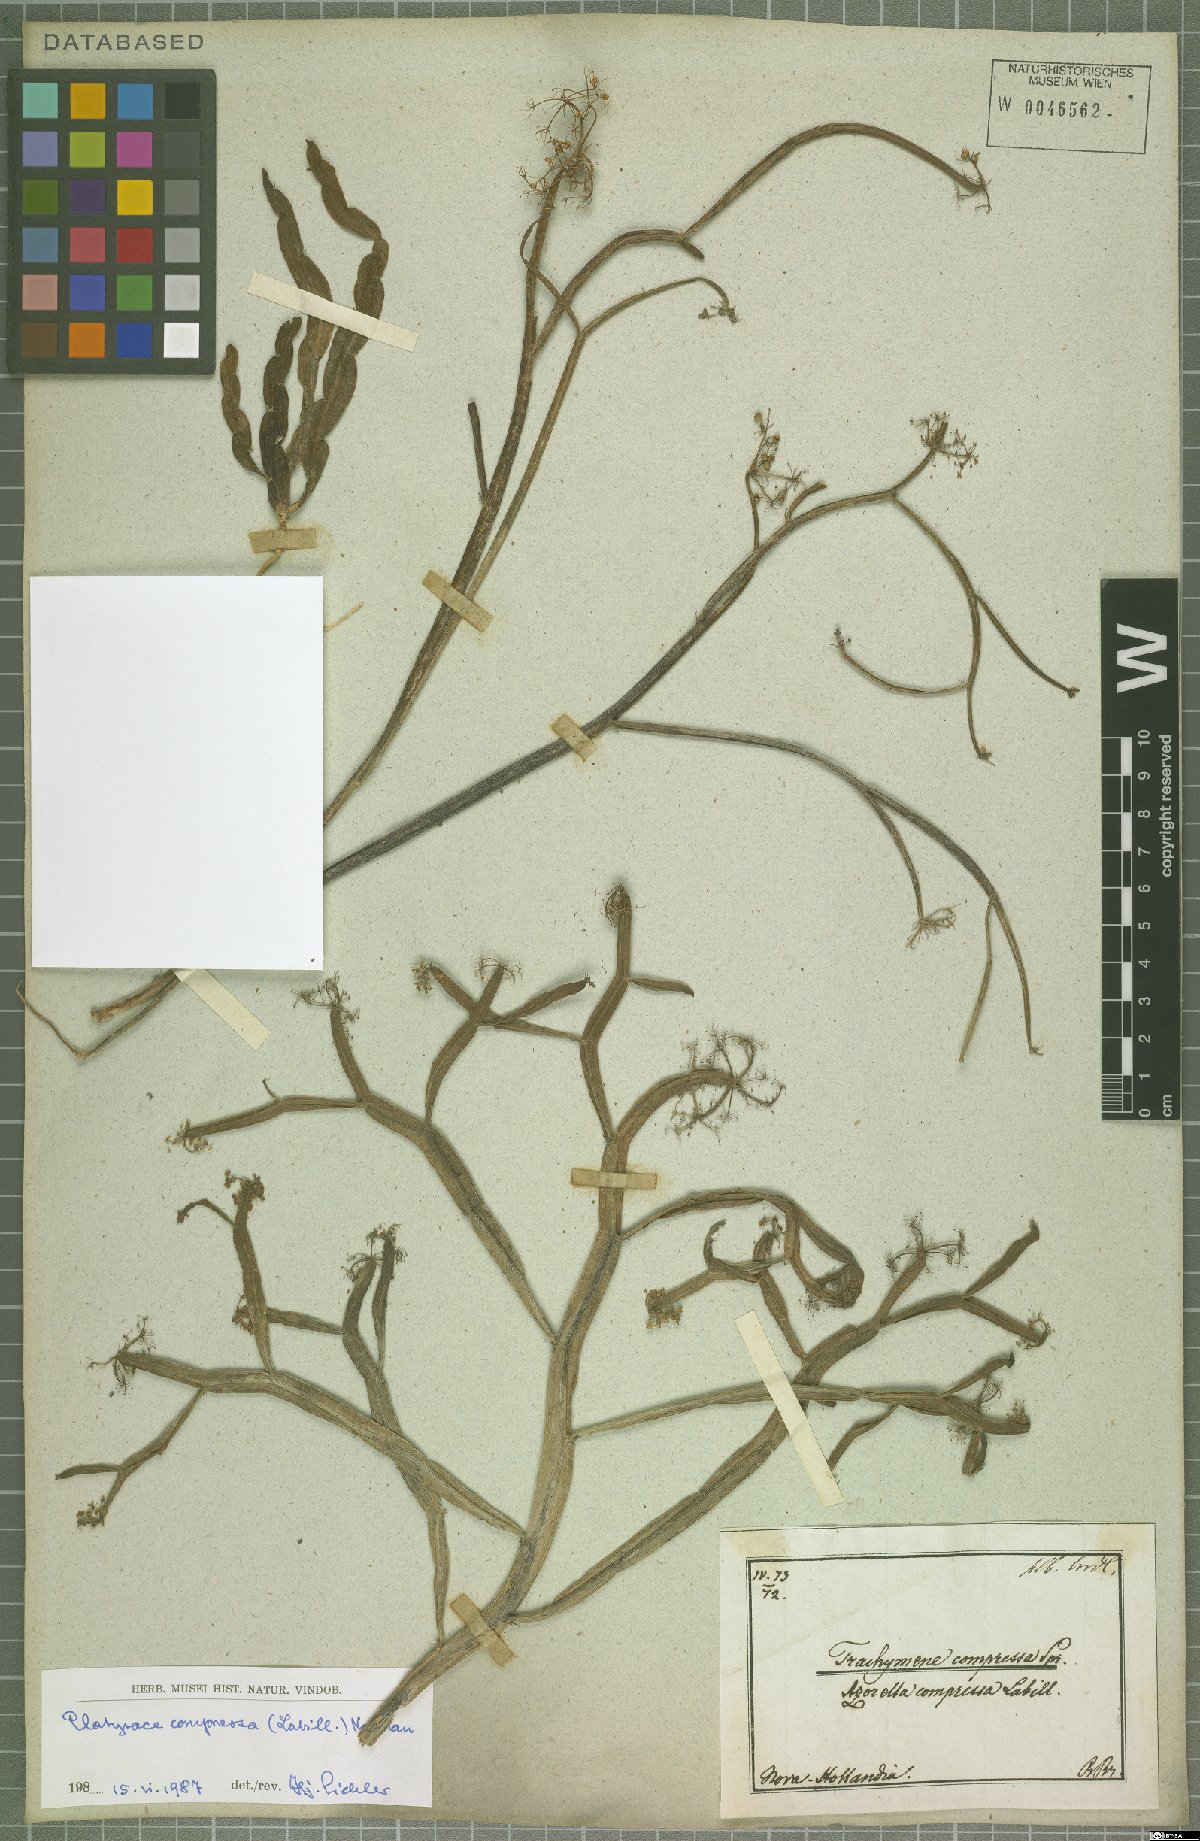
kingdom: Plantae
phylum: Tracheophyta
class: Magnoliopsida
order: Apiales
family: Apiaceae
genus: Platysace
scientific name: Platysace compressa
